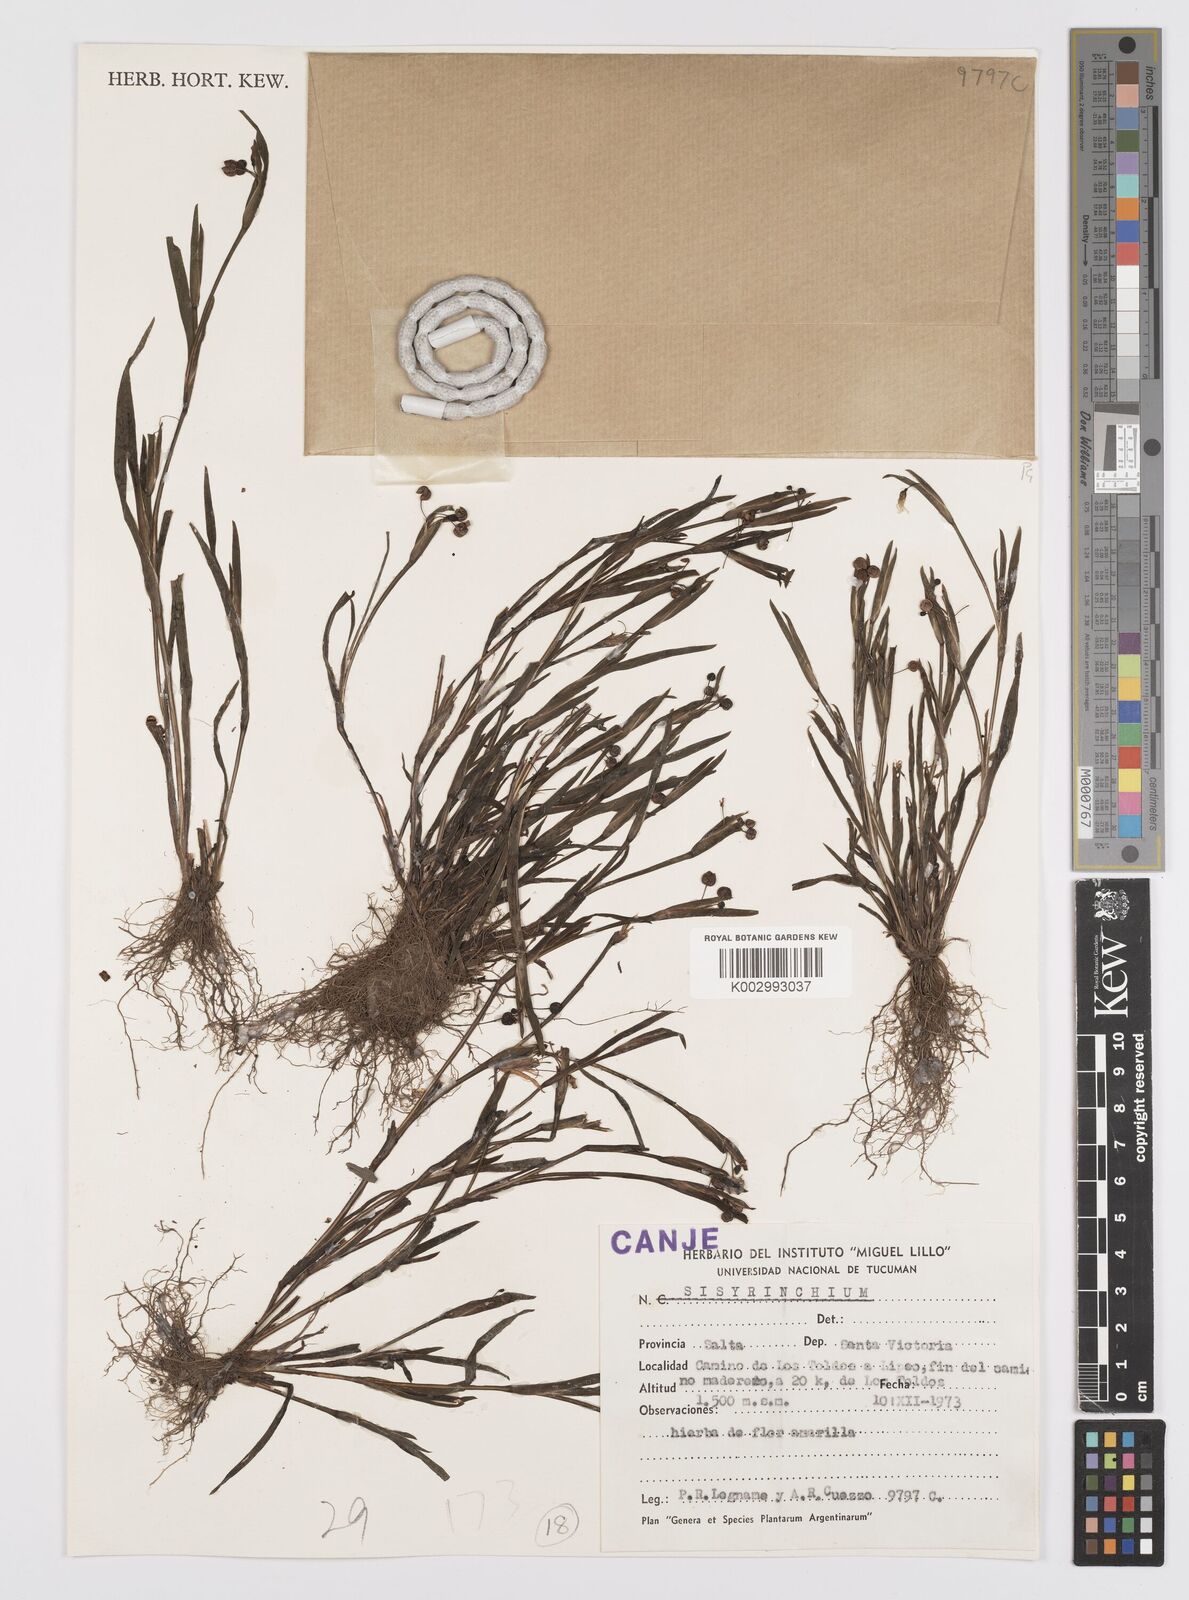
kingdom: Plantae
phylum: Tracheophyta
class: Liliopsida
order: Asparagales
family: Iridaceae
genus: Sisyrinchium
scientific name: Sisyrinchium
